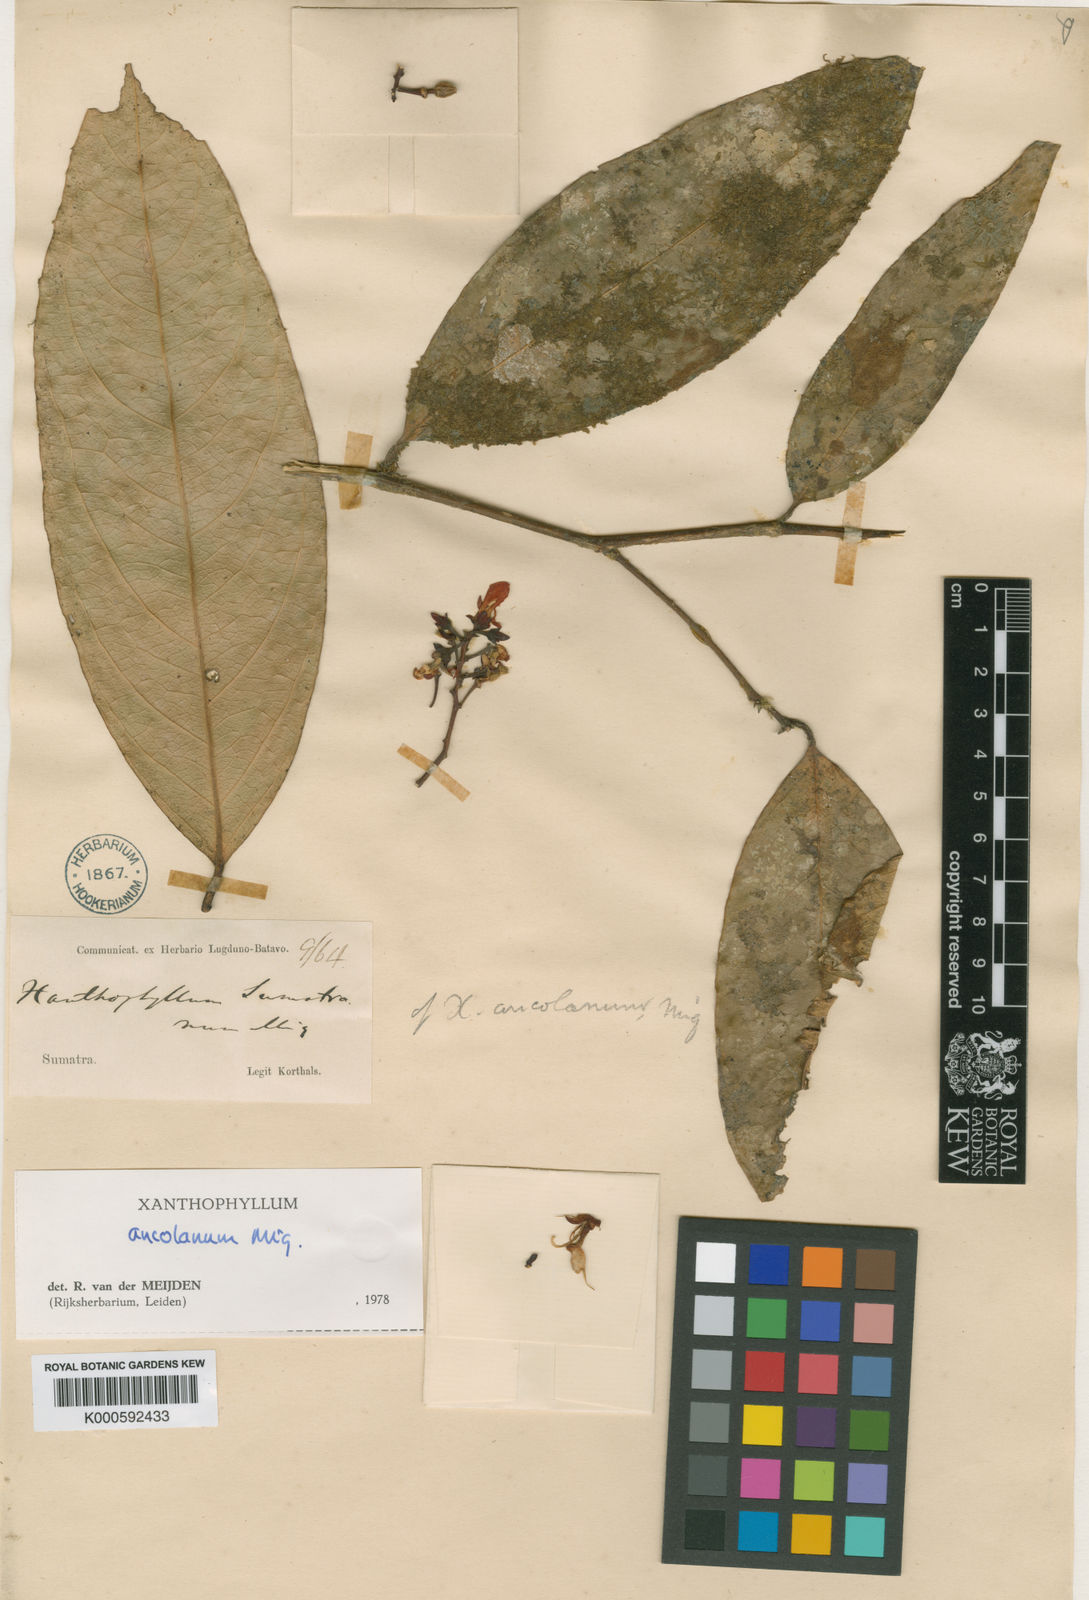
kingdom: Plantae
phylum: Tracheophyta
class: Magnoliopsida
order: Fabales
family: Polygalaceae
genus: Xanthophyllum
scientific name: Xanthophyllum ancolanum
